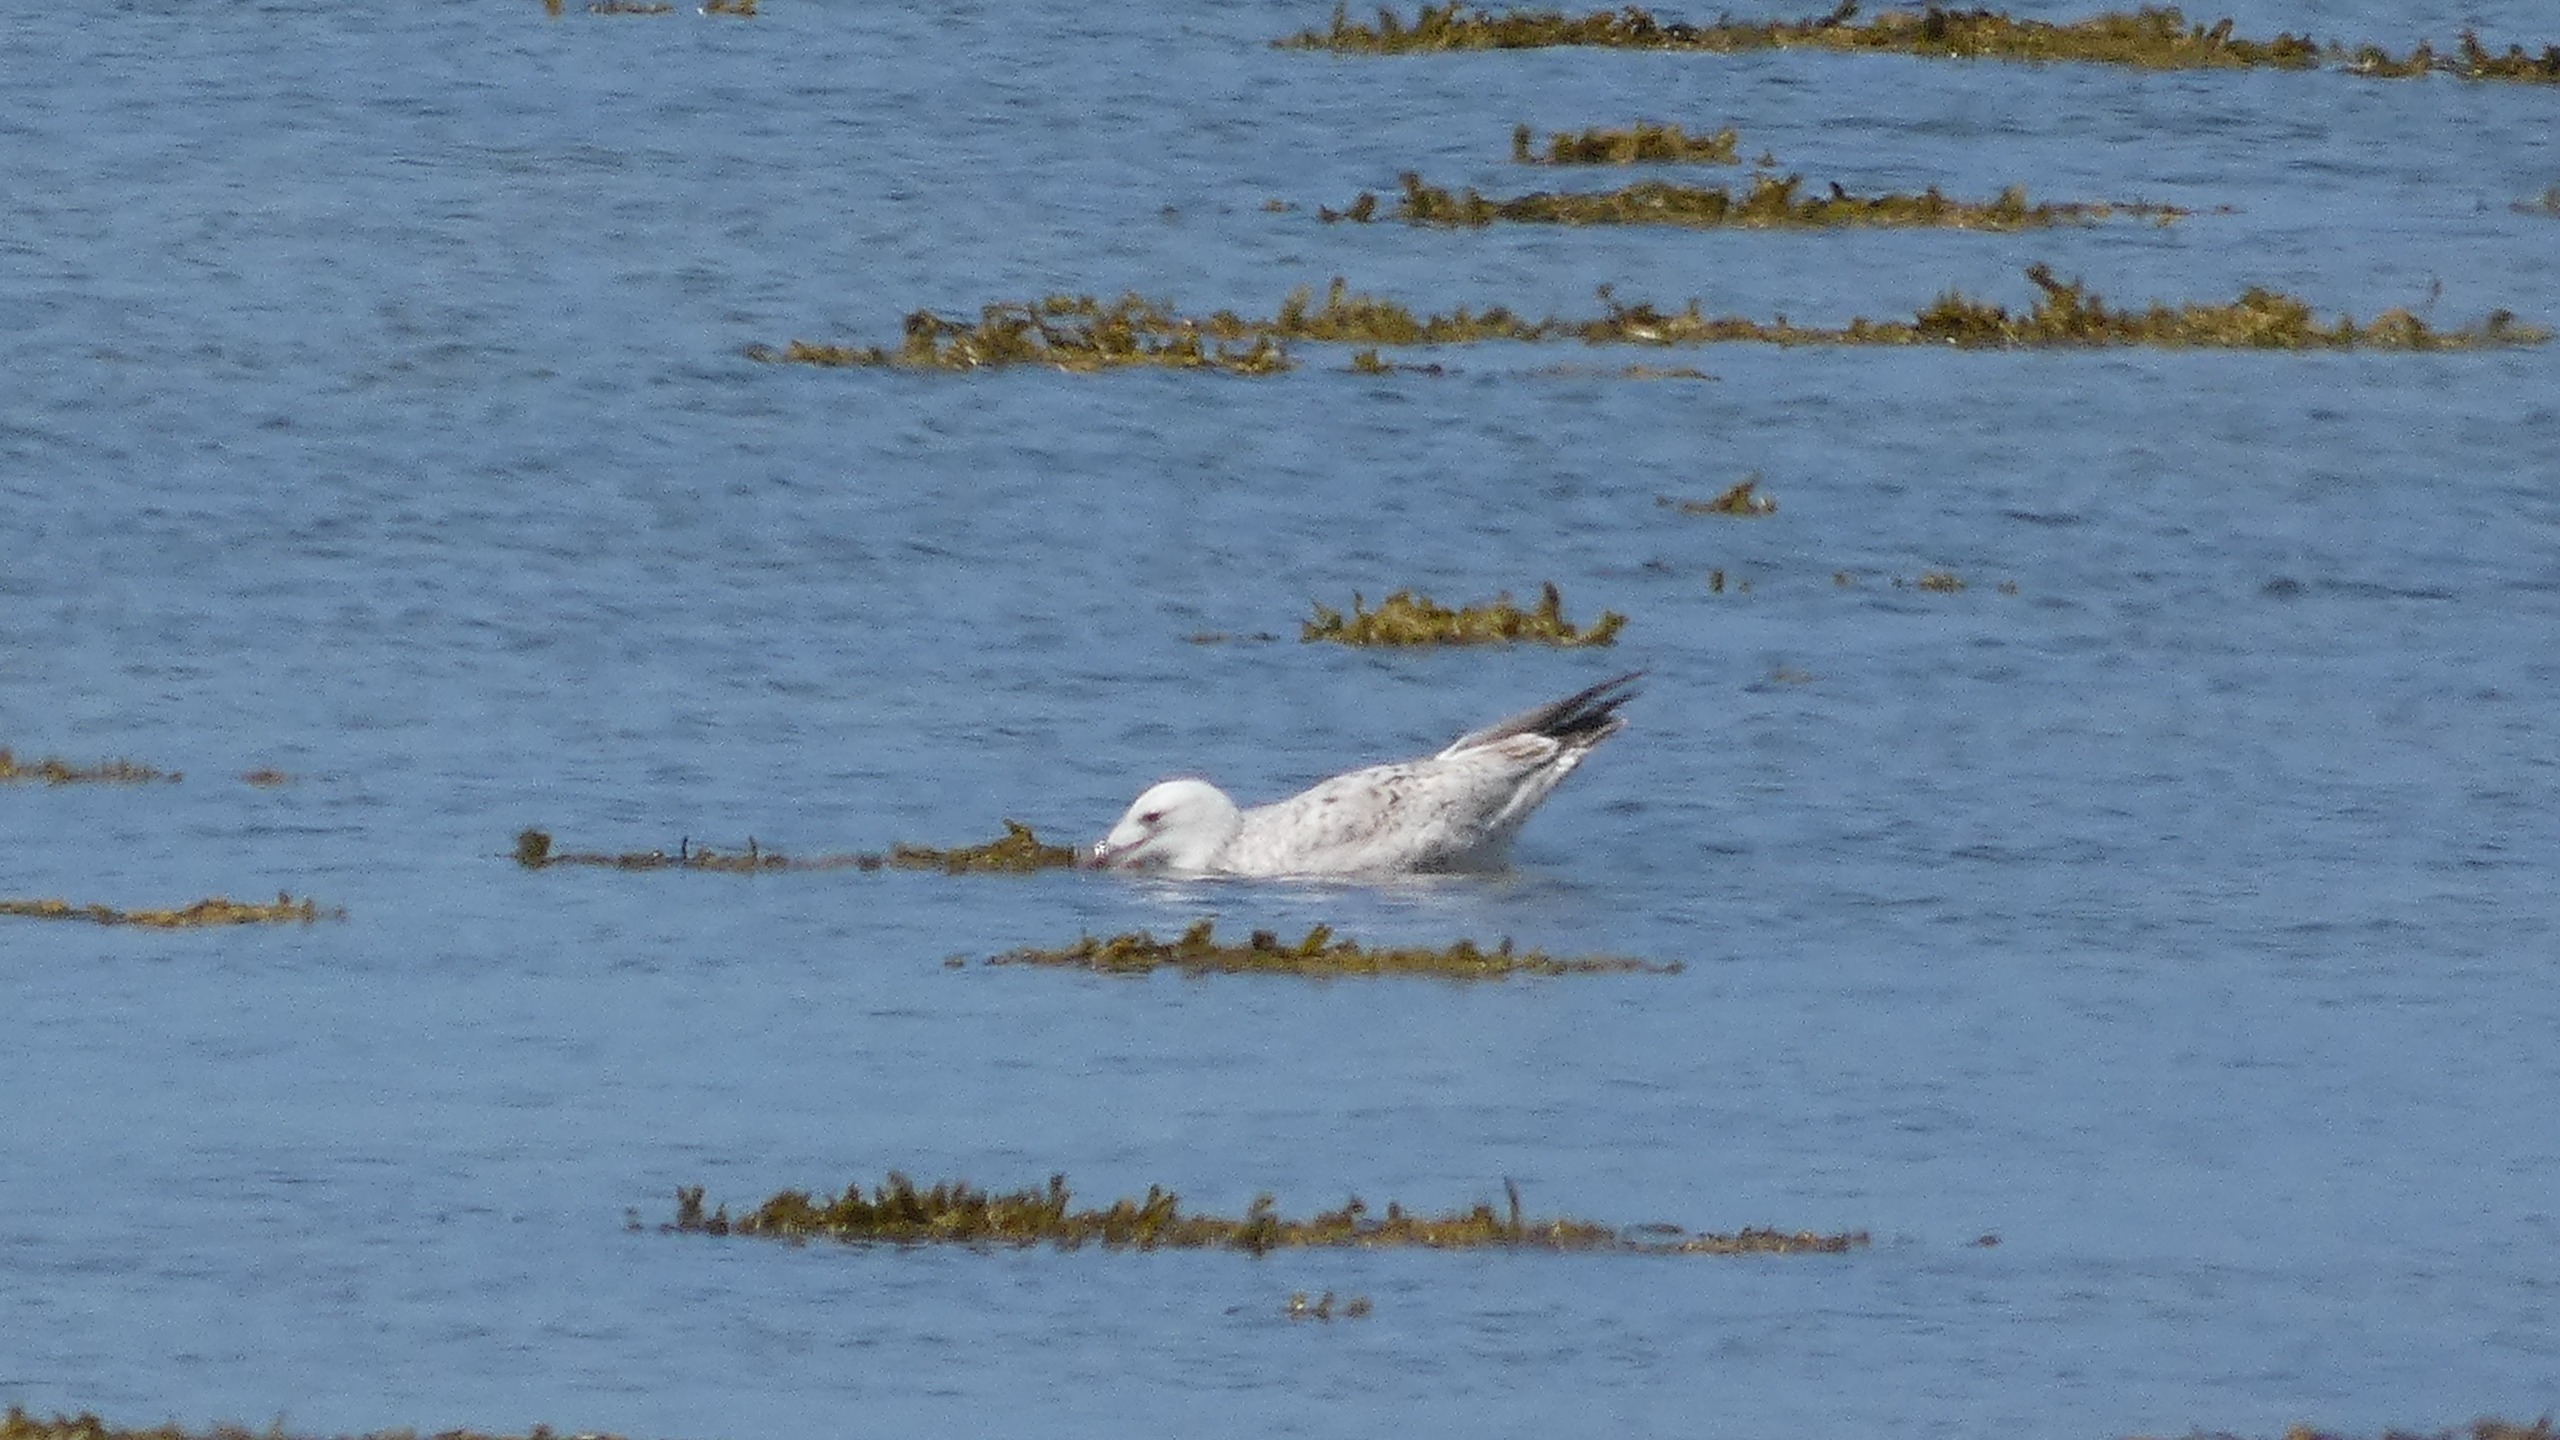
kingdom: Animalia
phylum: Chordata
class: Aves
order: Charadriiformes
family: Laridae
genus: Larus
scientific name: Larus argentatus
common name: Sølvmåge
